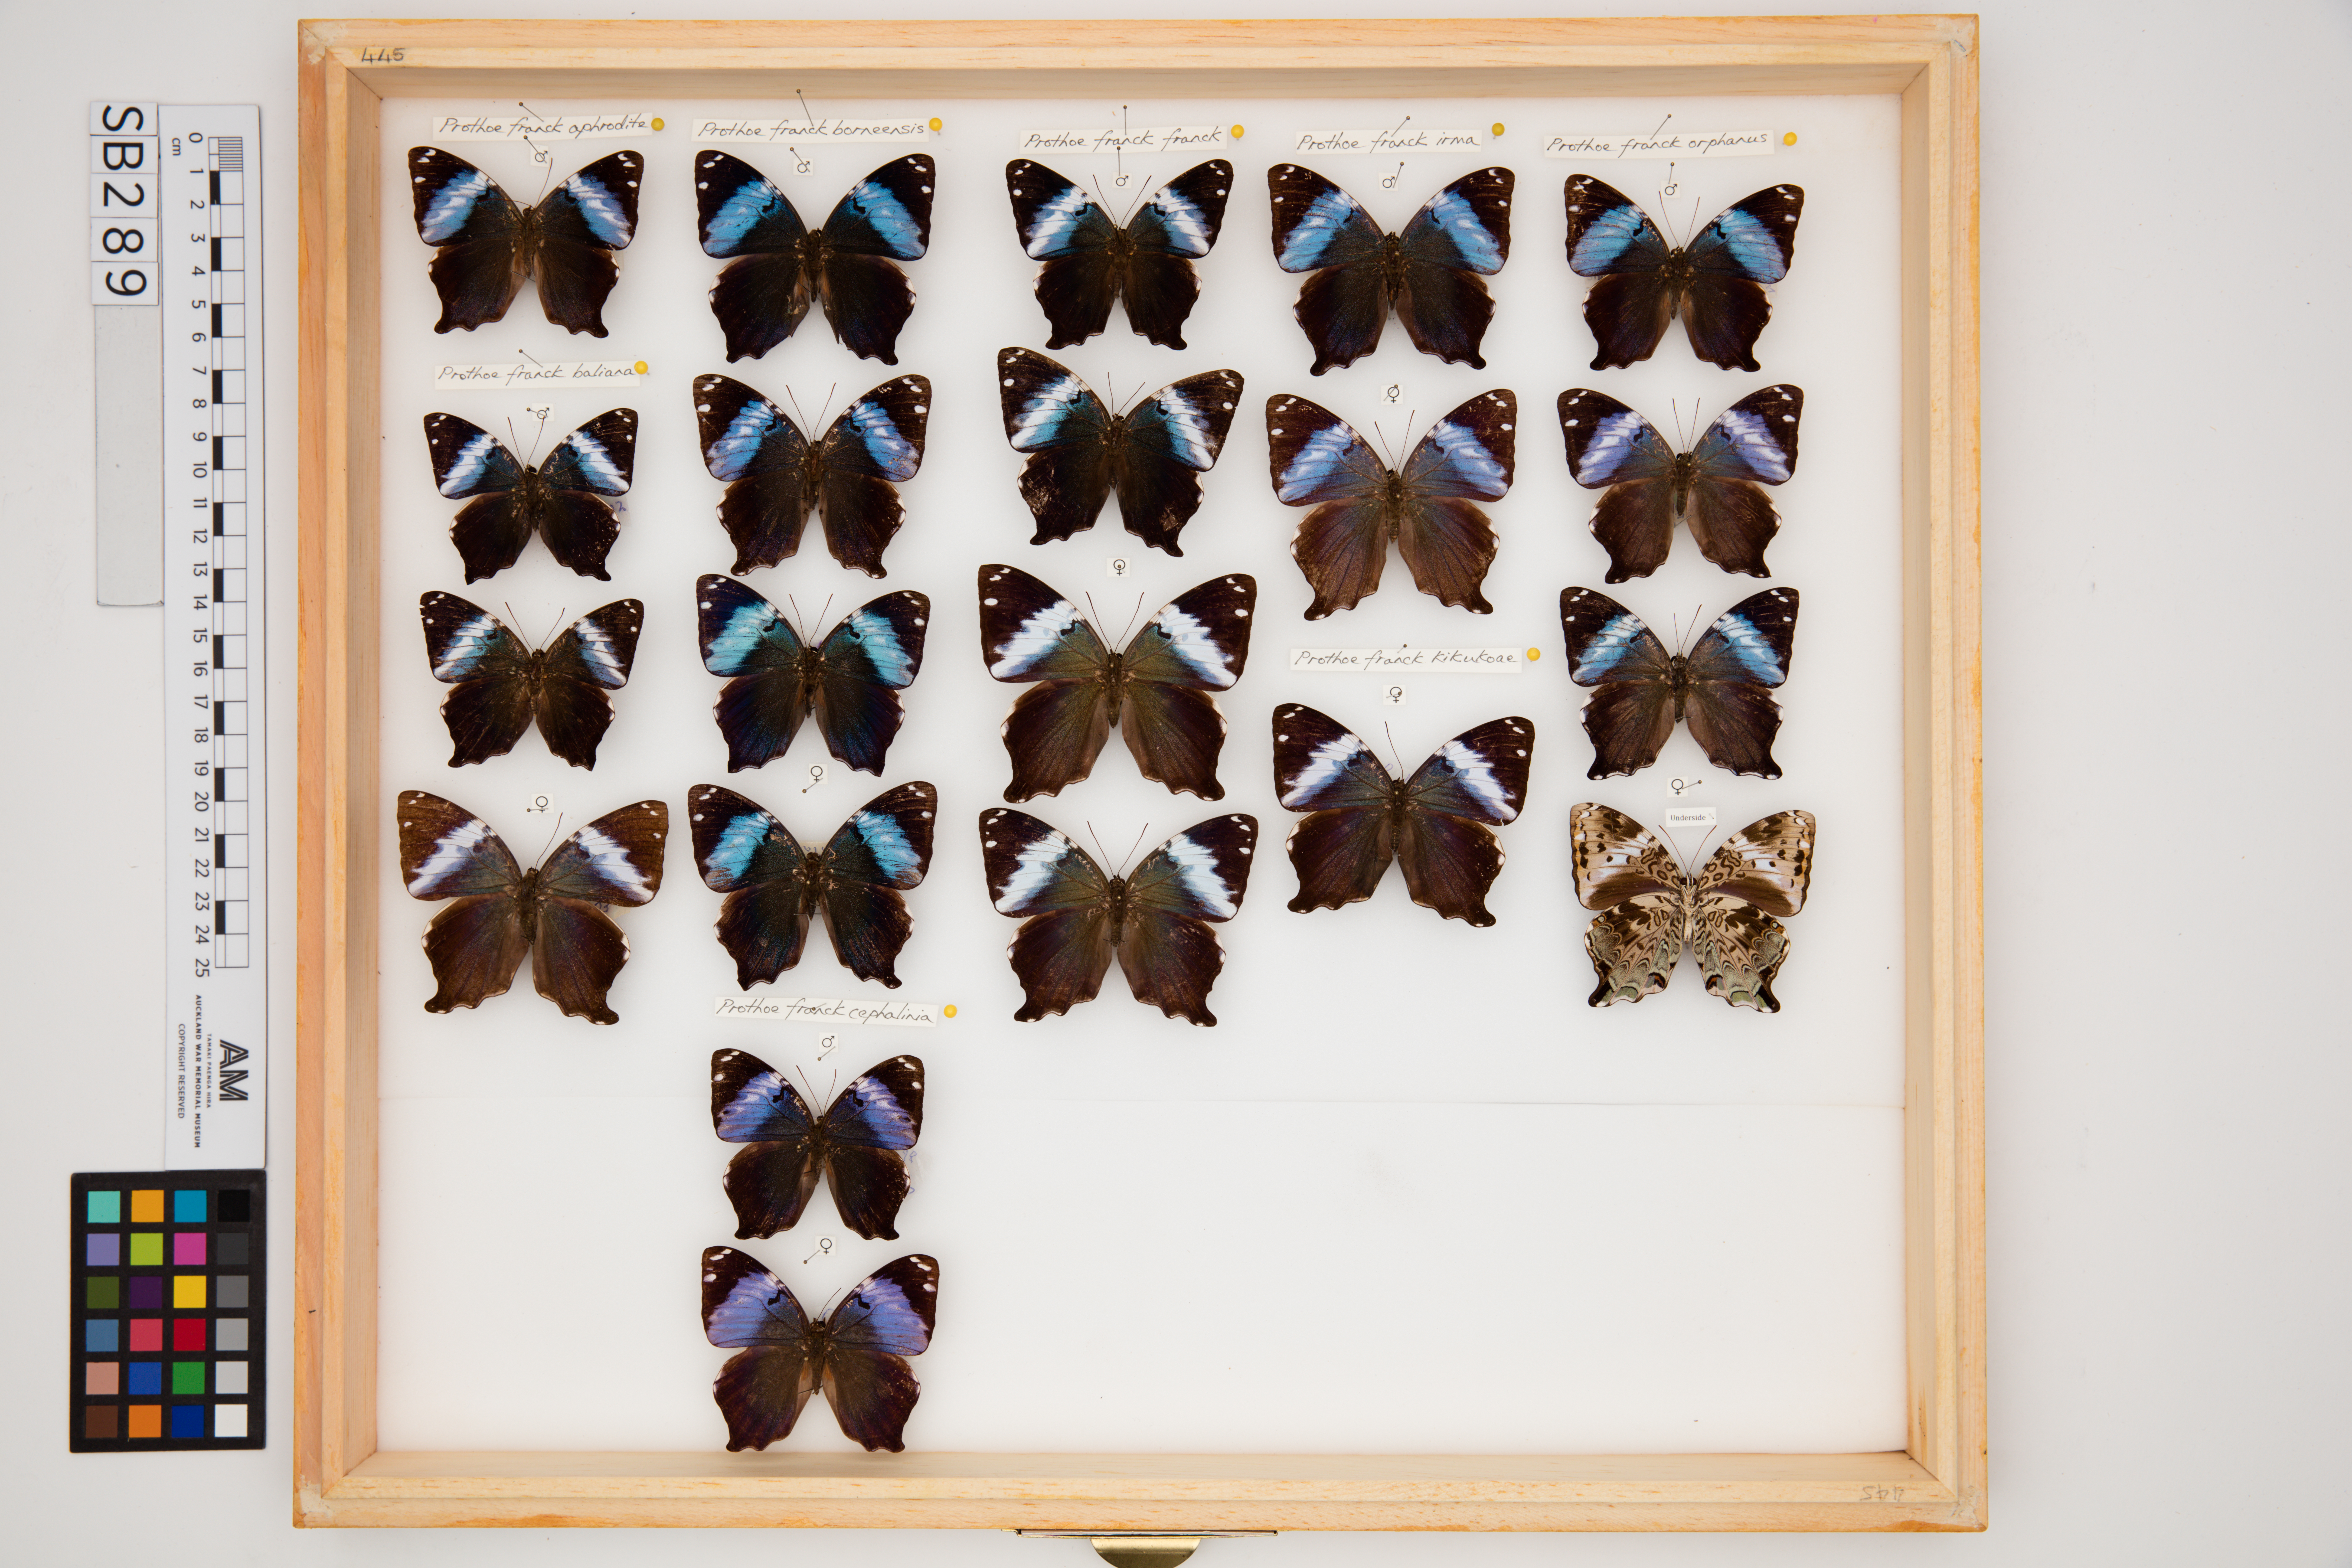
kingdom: Animalia
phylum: Arthropoda
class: Insecta
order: Lepidoptera
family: Nymphalidae
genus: Prothoe
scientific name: Prothoe franck
